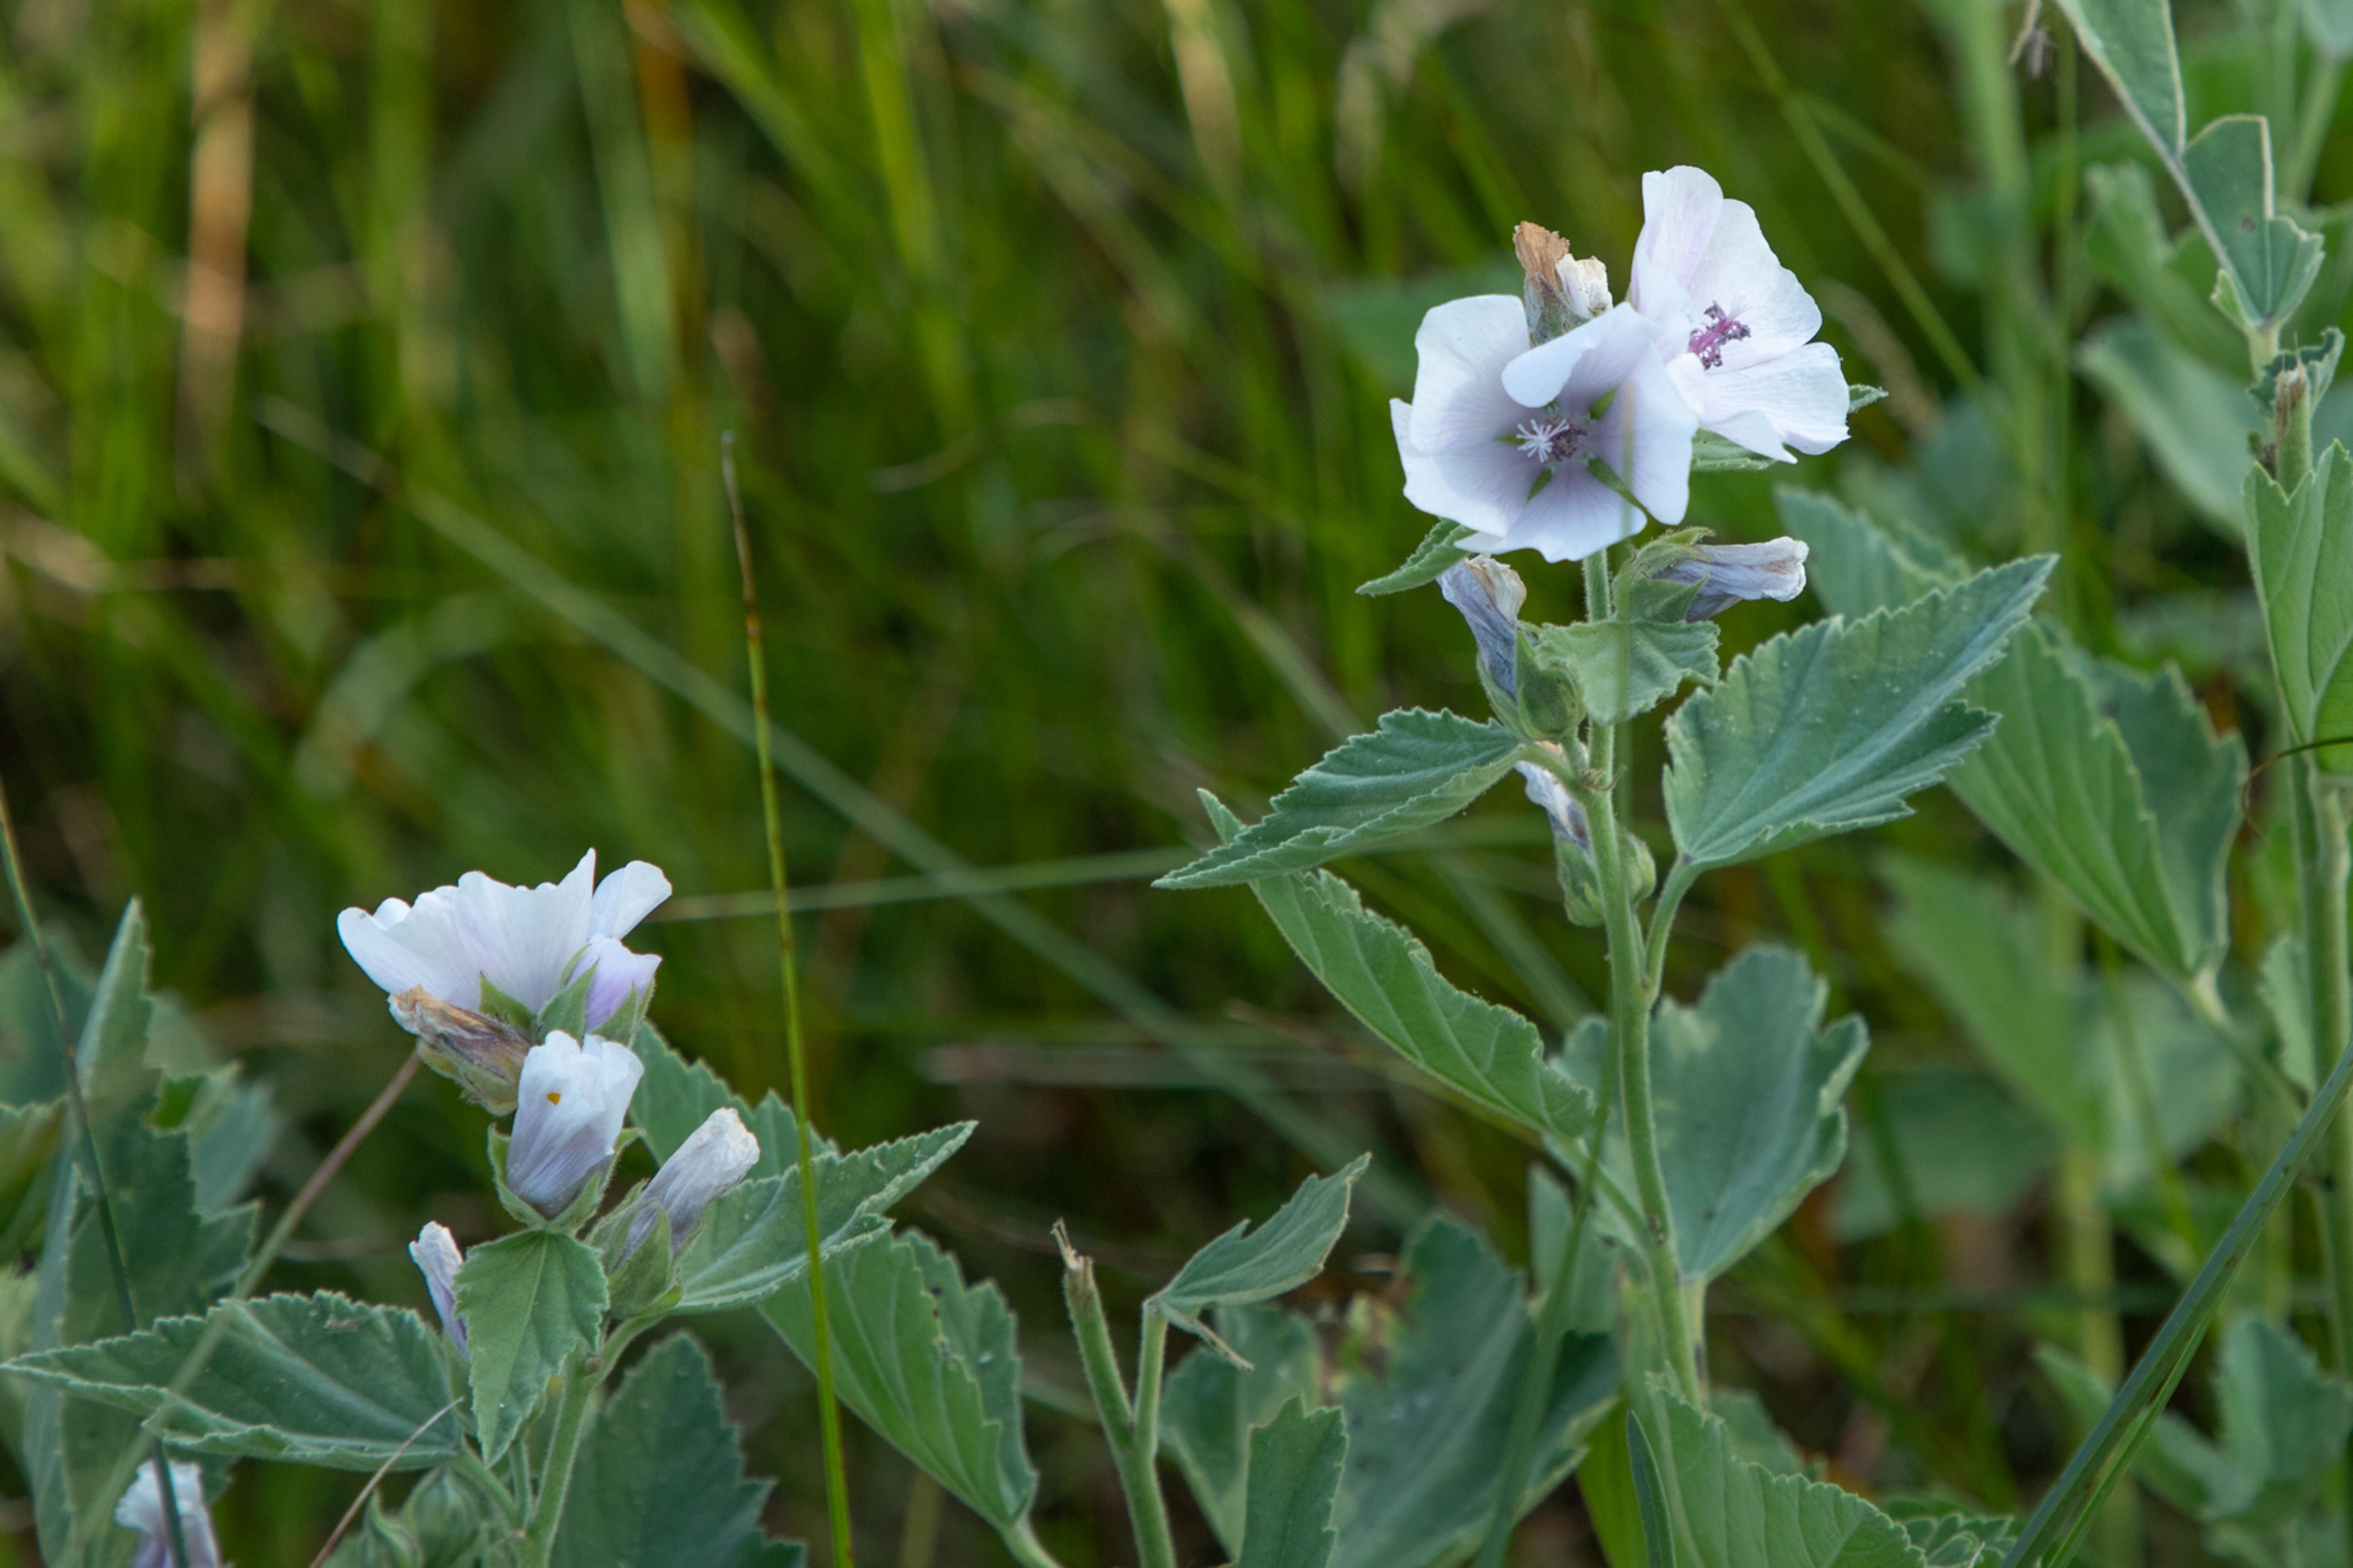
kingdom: Plantae
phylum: Tracheophyta
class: Magnoliopsida
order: Malvales
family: Malvaceae
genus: Althaea
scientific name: Althaea officinalis
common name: Lægestokrose
